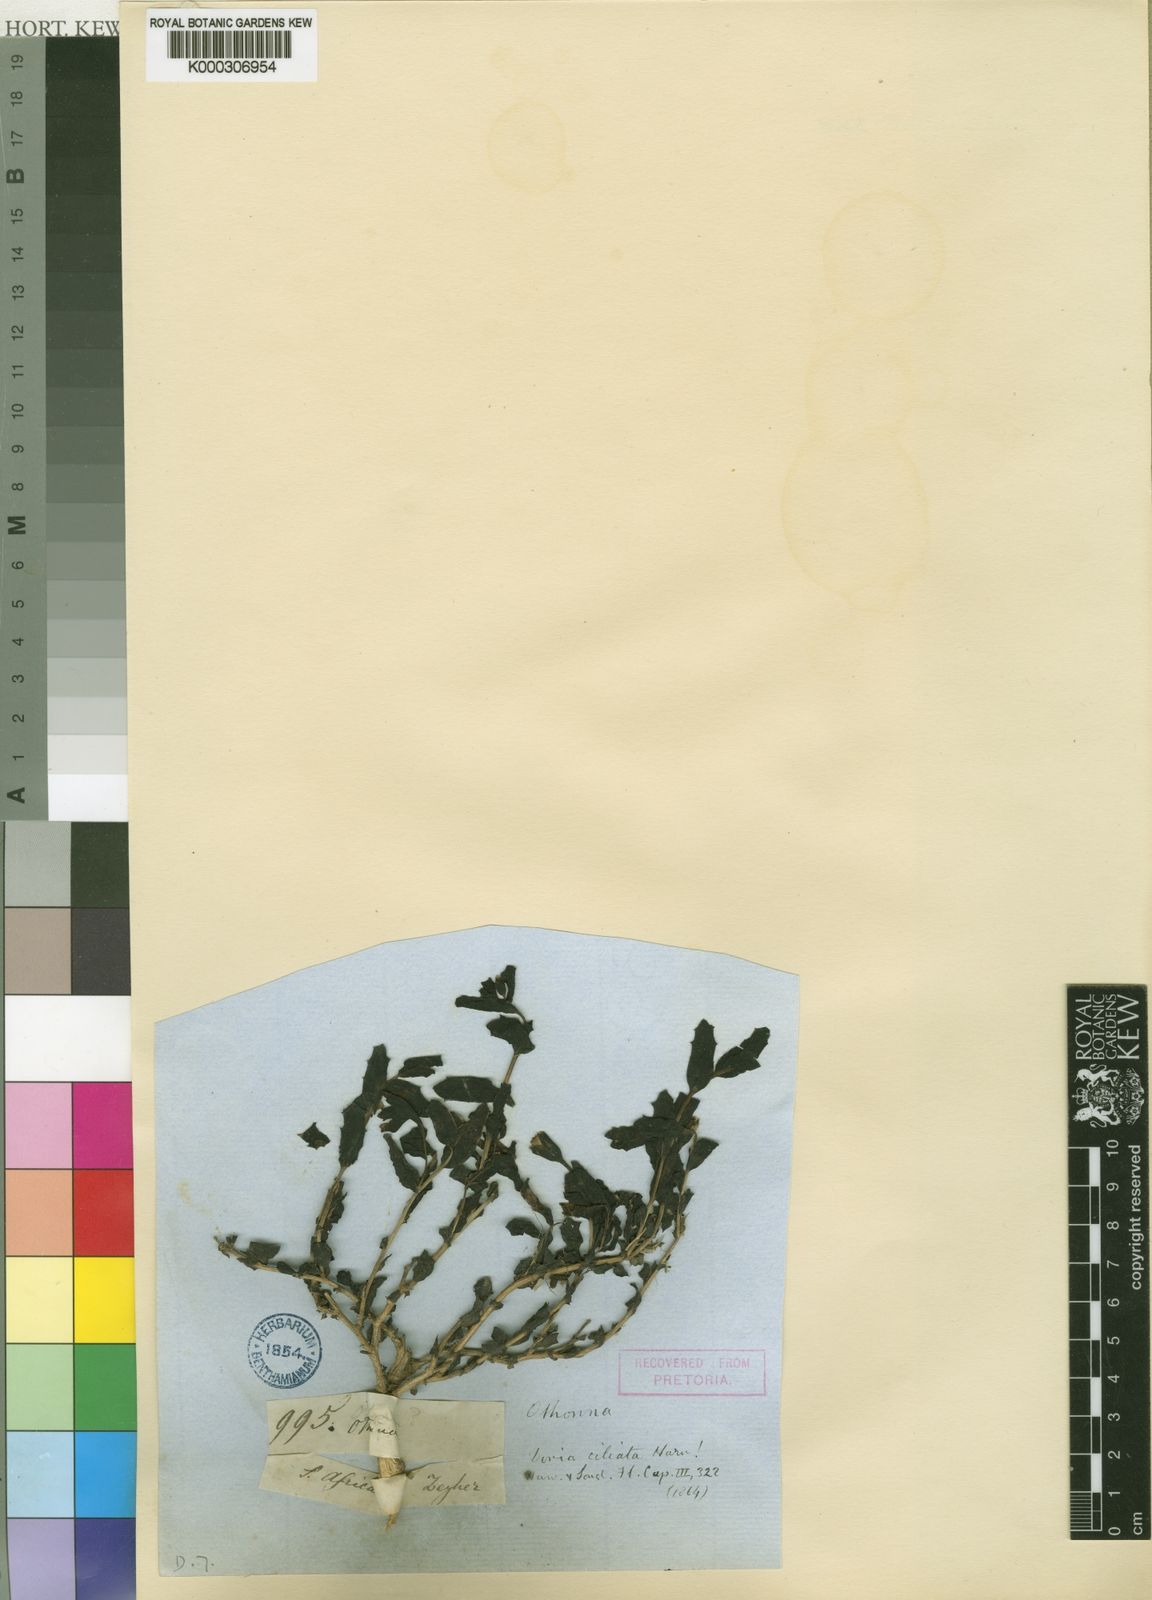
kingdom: Plantae
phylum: Tracheophyta
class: Magnoliopsida
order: Asterales
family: Asteraceae
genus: Othonna
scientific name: Othonna ciliata
